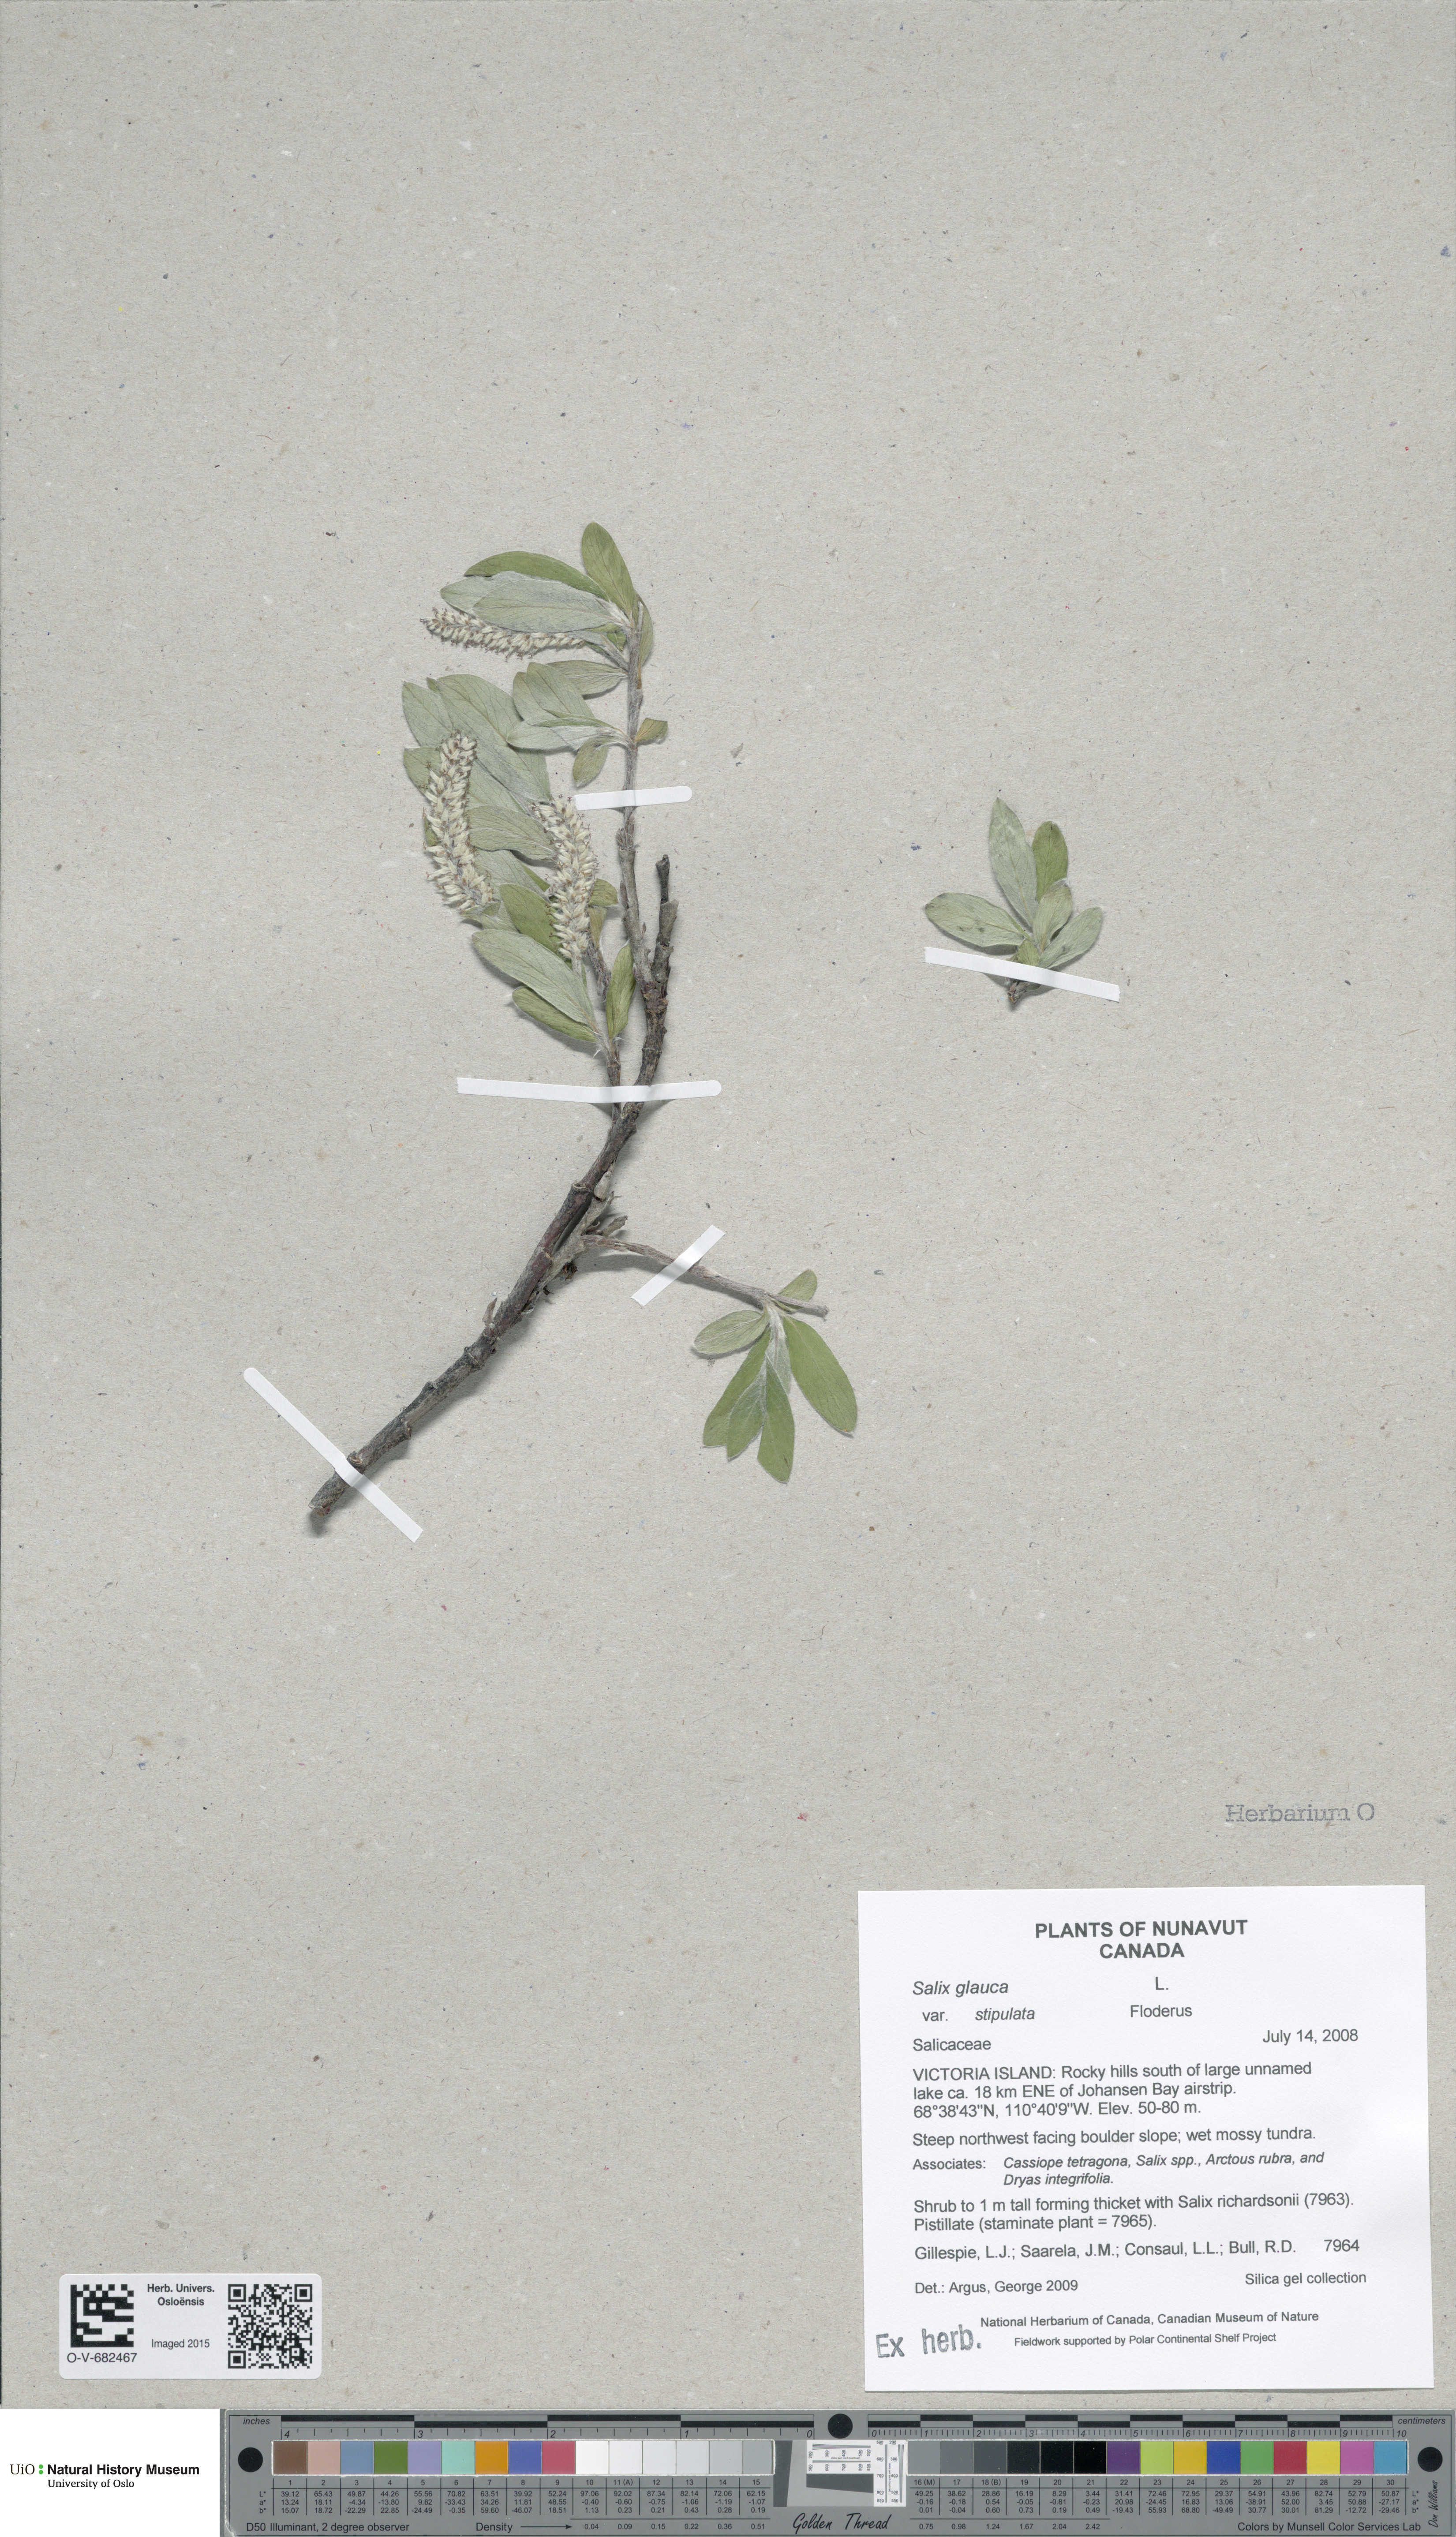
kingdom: Plantae
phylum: Tracheophyta
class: Magnoliopsida
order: Malpighiales
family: Salicaceae
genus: Salix
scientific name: Salix glauca
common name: Glaucous willow
